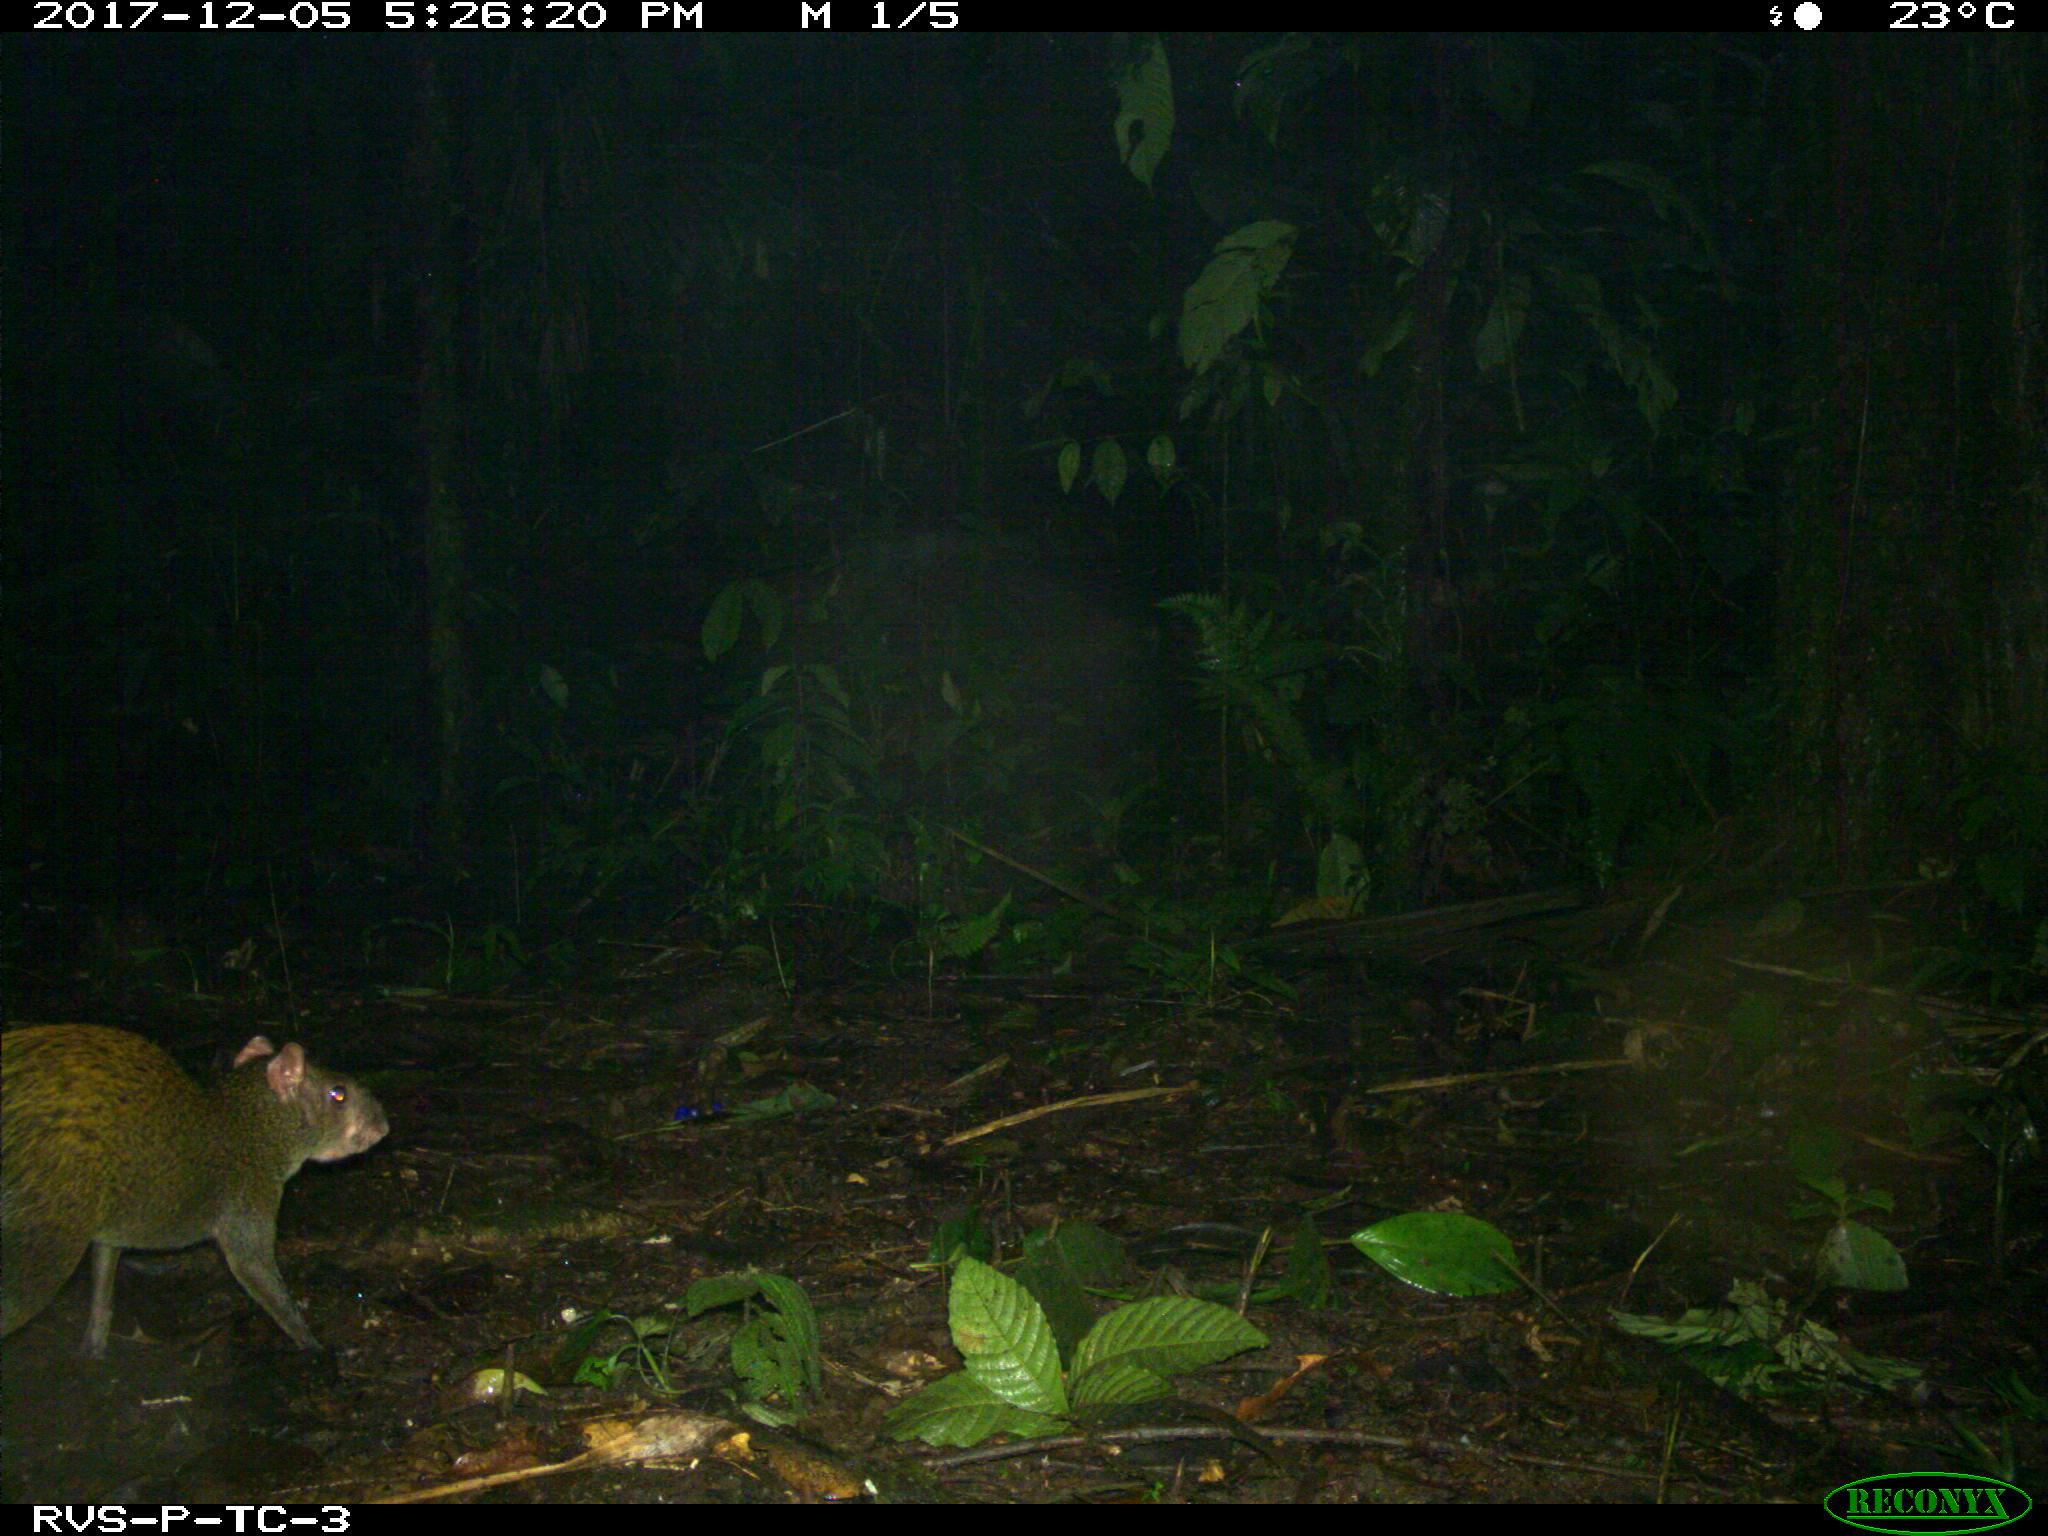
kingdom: Animalia
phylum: Chordata
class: Mammalia
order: Rodentia
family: Dasyproctidae
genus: Dasyprocta
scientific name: Dasyprocta punctata
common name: Central american agouti
